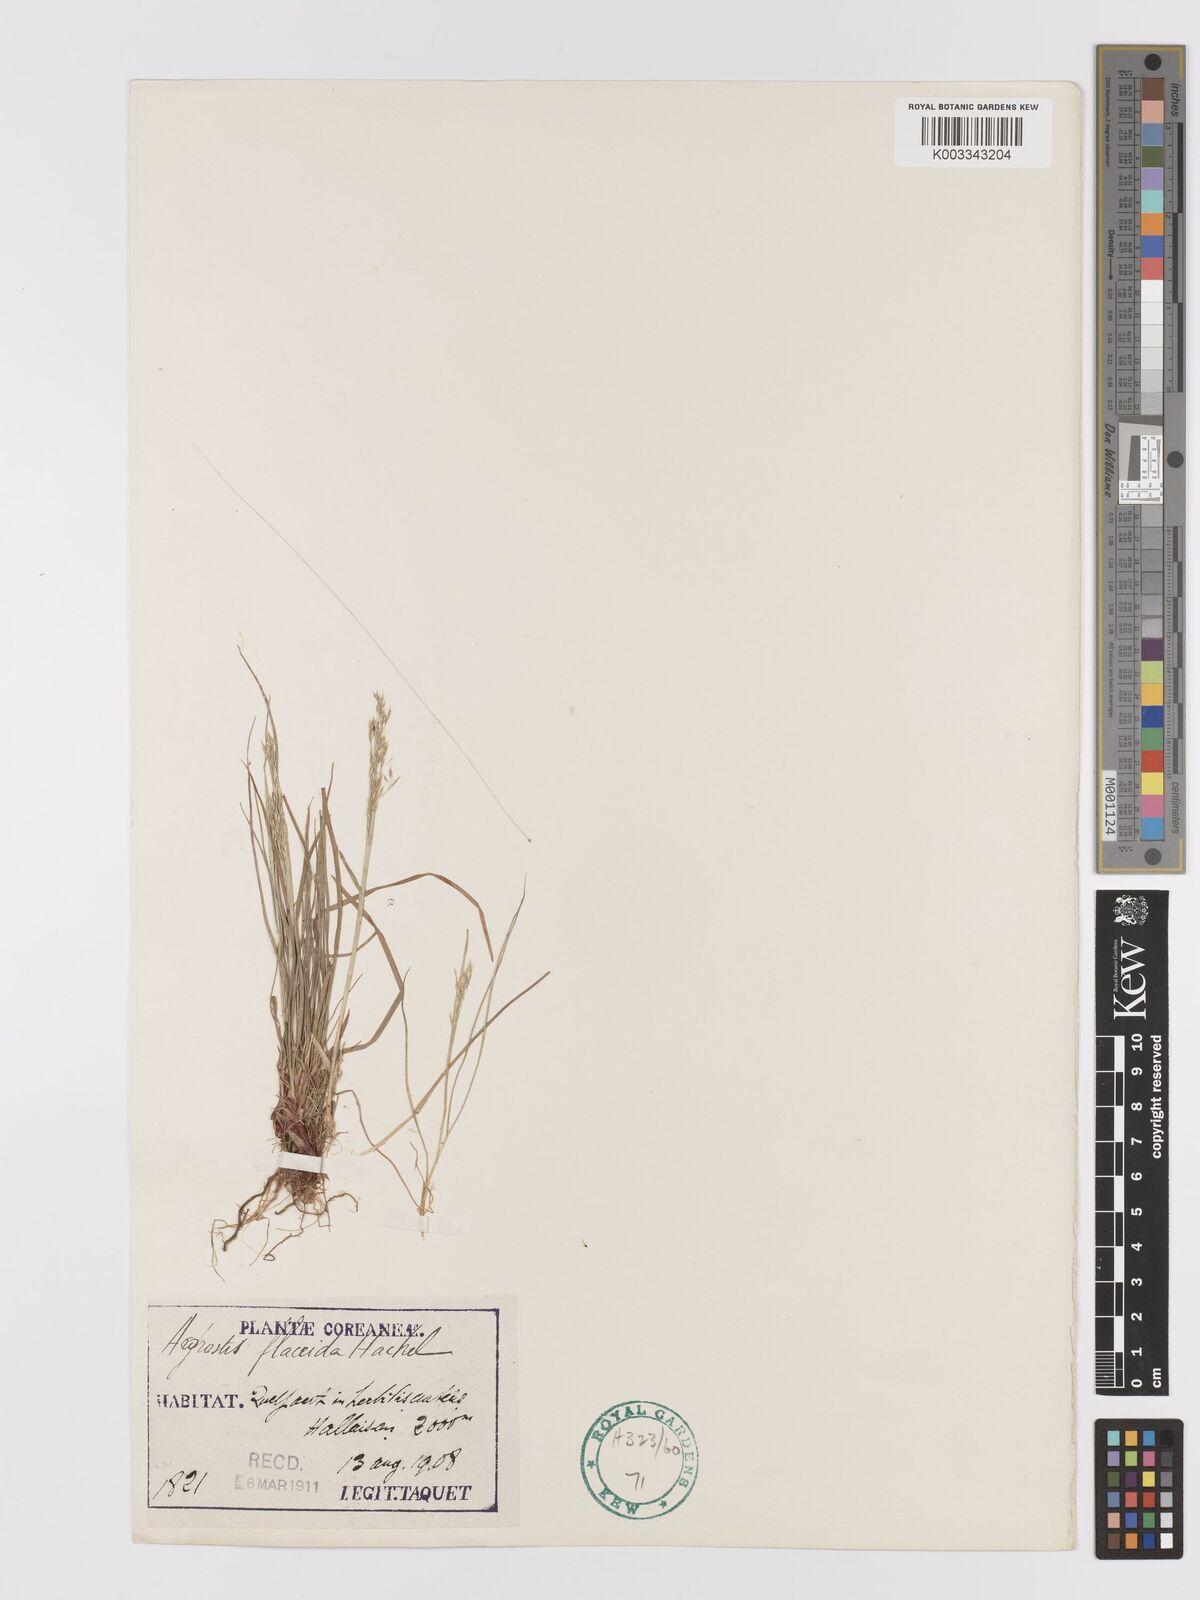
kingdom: Plantae
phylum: Tracheophyta
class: Liliopsida
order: Poales
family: Poaceae
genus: Agrostis
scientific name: Agrostis flaccida
